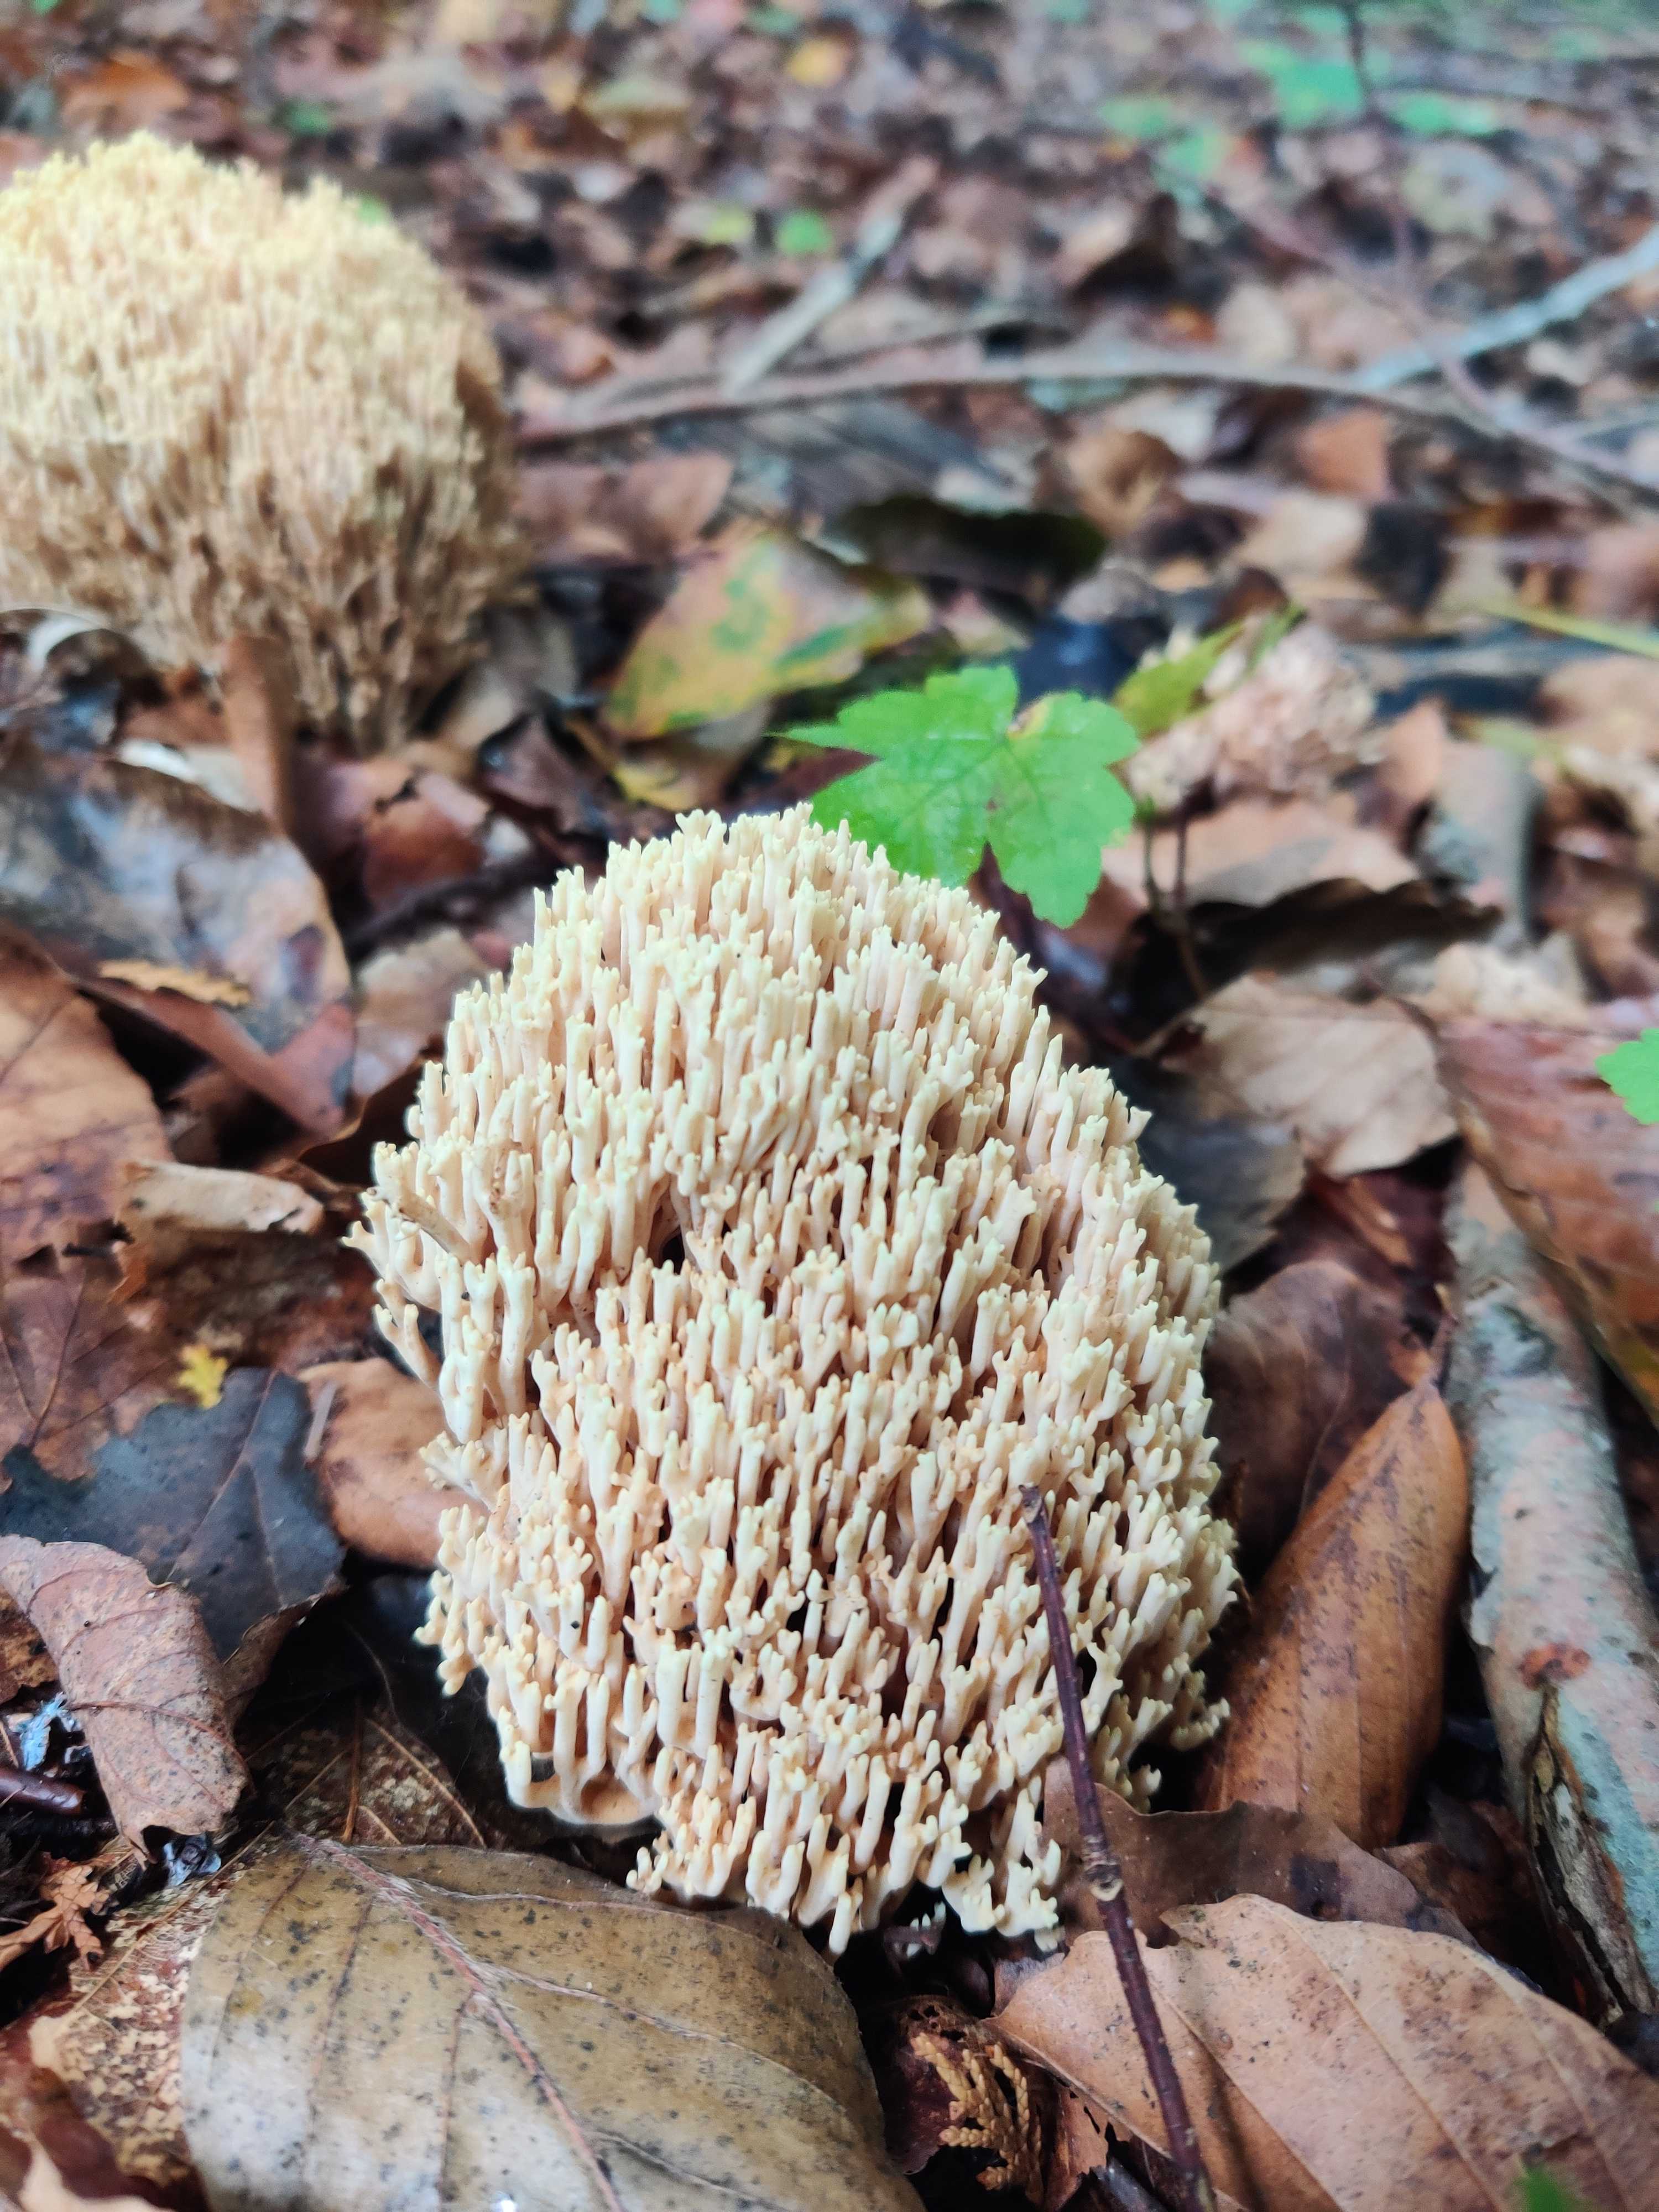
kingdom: Fungi
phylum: Basidiomycota
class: Agaricomycetes
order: Gomphales
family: Gomphaceae
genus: Ramaria
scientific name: Ramaria stricta
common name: rank koralsvamp
